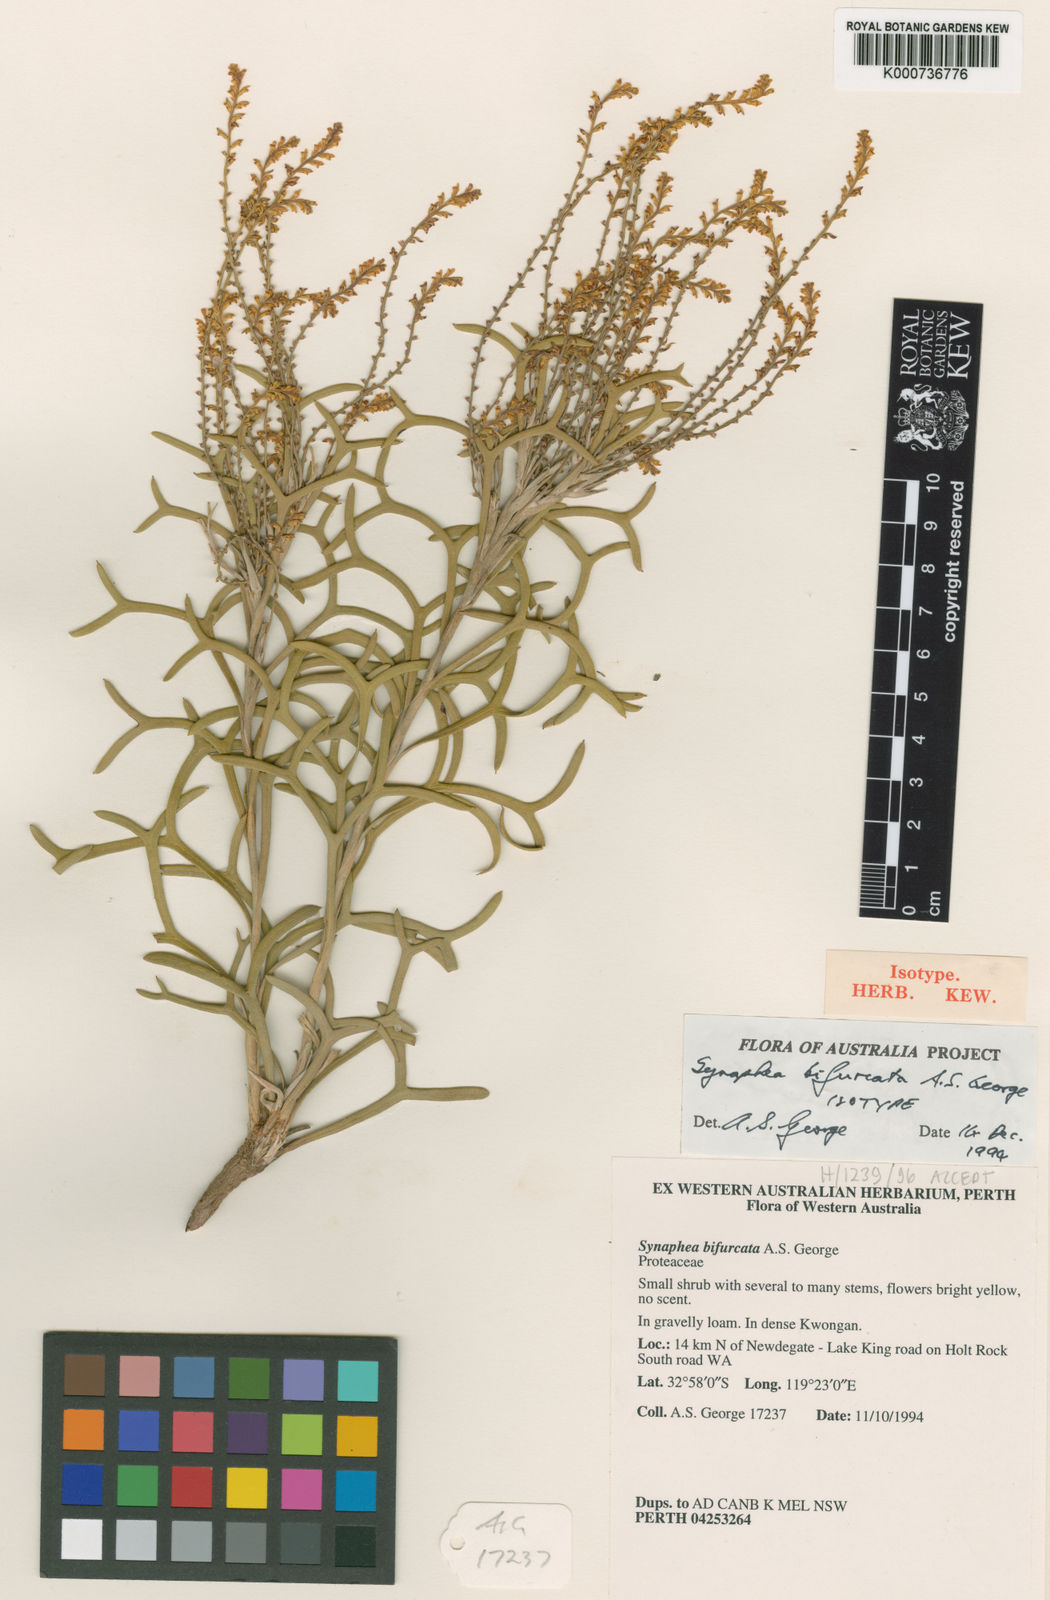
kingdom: Plantae
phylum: Tracheophyta
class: Magnoliopsida
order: Proteales
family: Proteaceae
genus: Synaphea
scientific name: Synaphea bifurcata
